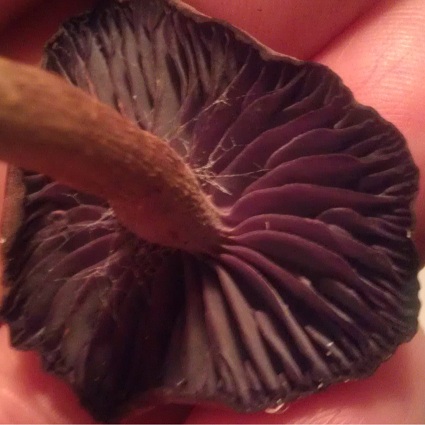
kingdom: Fungi
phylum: Basidiomycota
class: Agaricomycetes
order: Agaricales
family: Hydnangiaceae
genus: Laccaria
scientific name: Laccaria amethystina
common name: violet ametysthat
